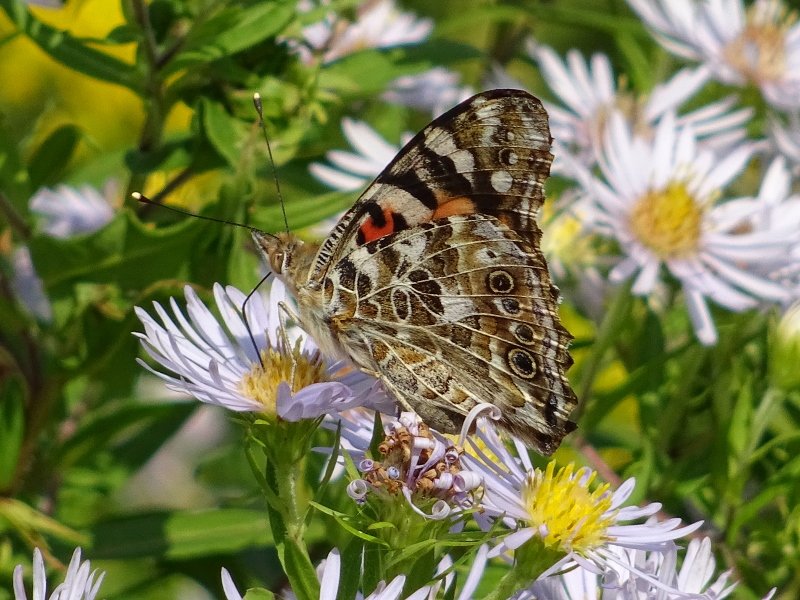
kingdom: Animalia
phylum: Arthropoda
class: Insecta
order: Lepidoptera
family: Nymphalidae
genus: Vanessa
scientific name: Vanessa cardui
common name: Painted Lady
